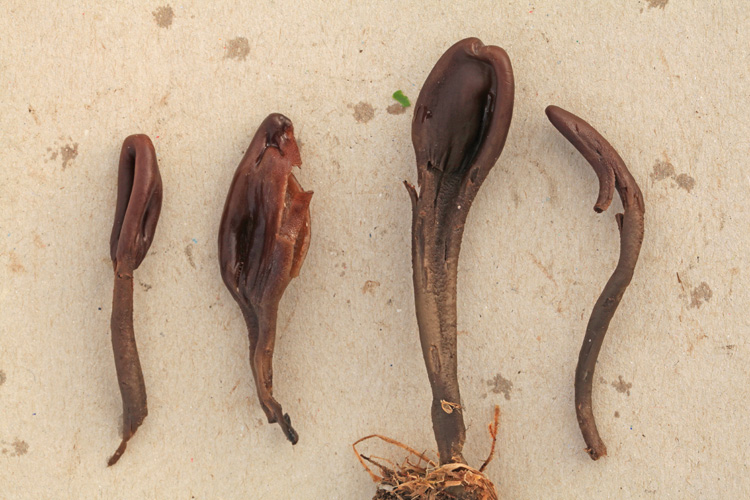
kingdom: Fungi
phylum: Ascomycota
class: Geoglossomycetes
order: Geoglossales
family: Geoglossaceae
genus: Geoglossum
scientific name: Geoglossum atropurpureum
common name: purpursort farvetunge
